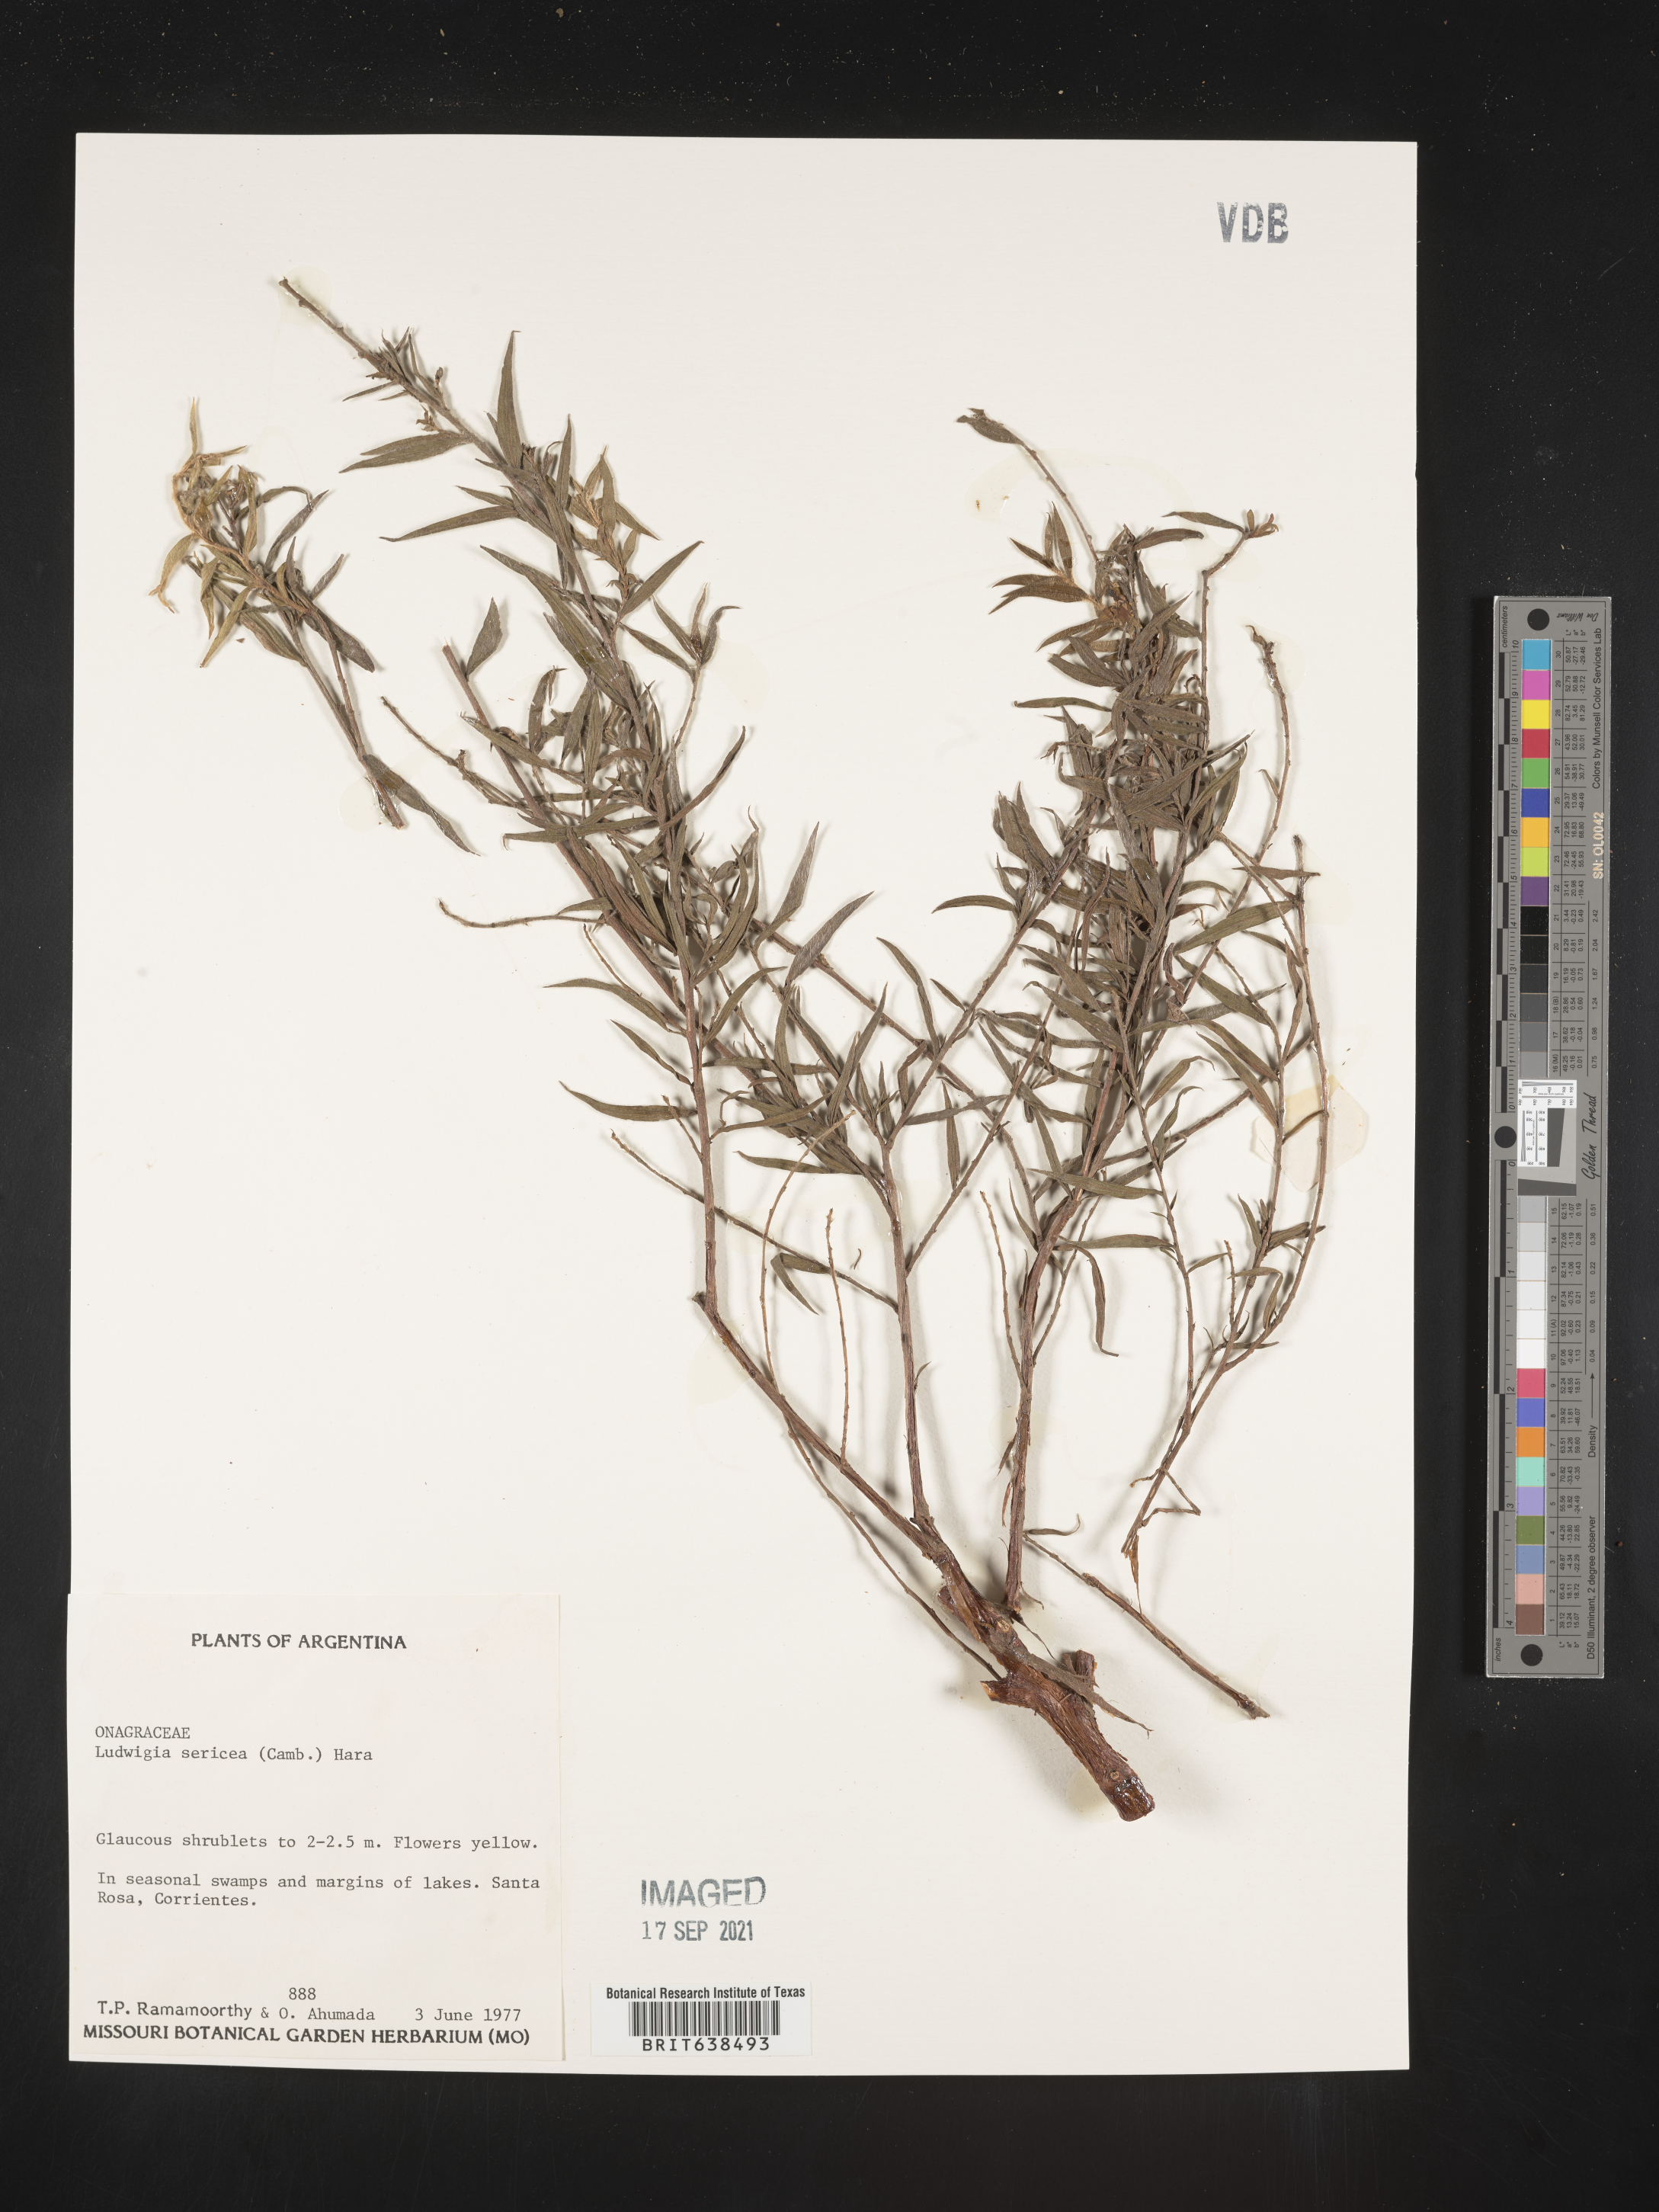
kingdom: Plantae
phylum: Tracheophyta
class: Magnoliopsida
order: Myrtales
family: Onagraceae
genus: Ludwigia
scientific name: Ludwigia
